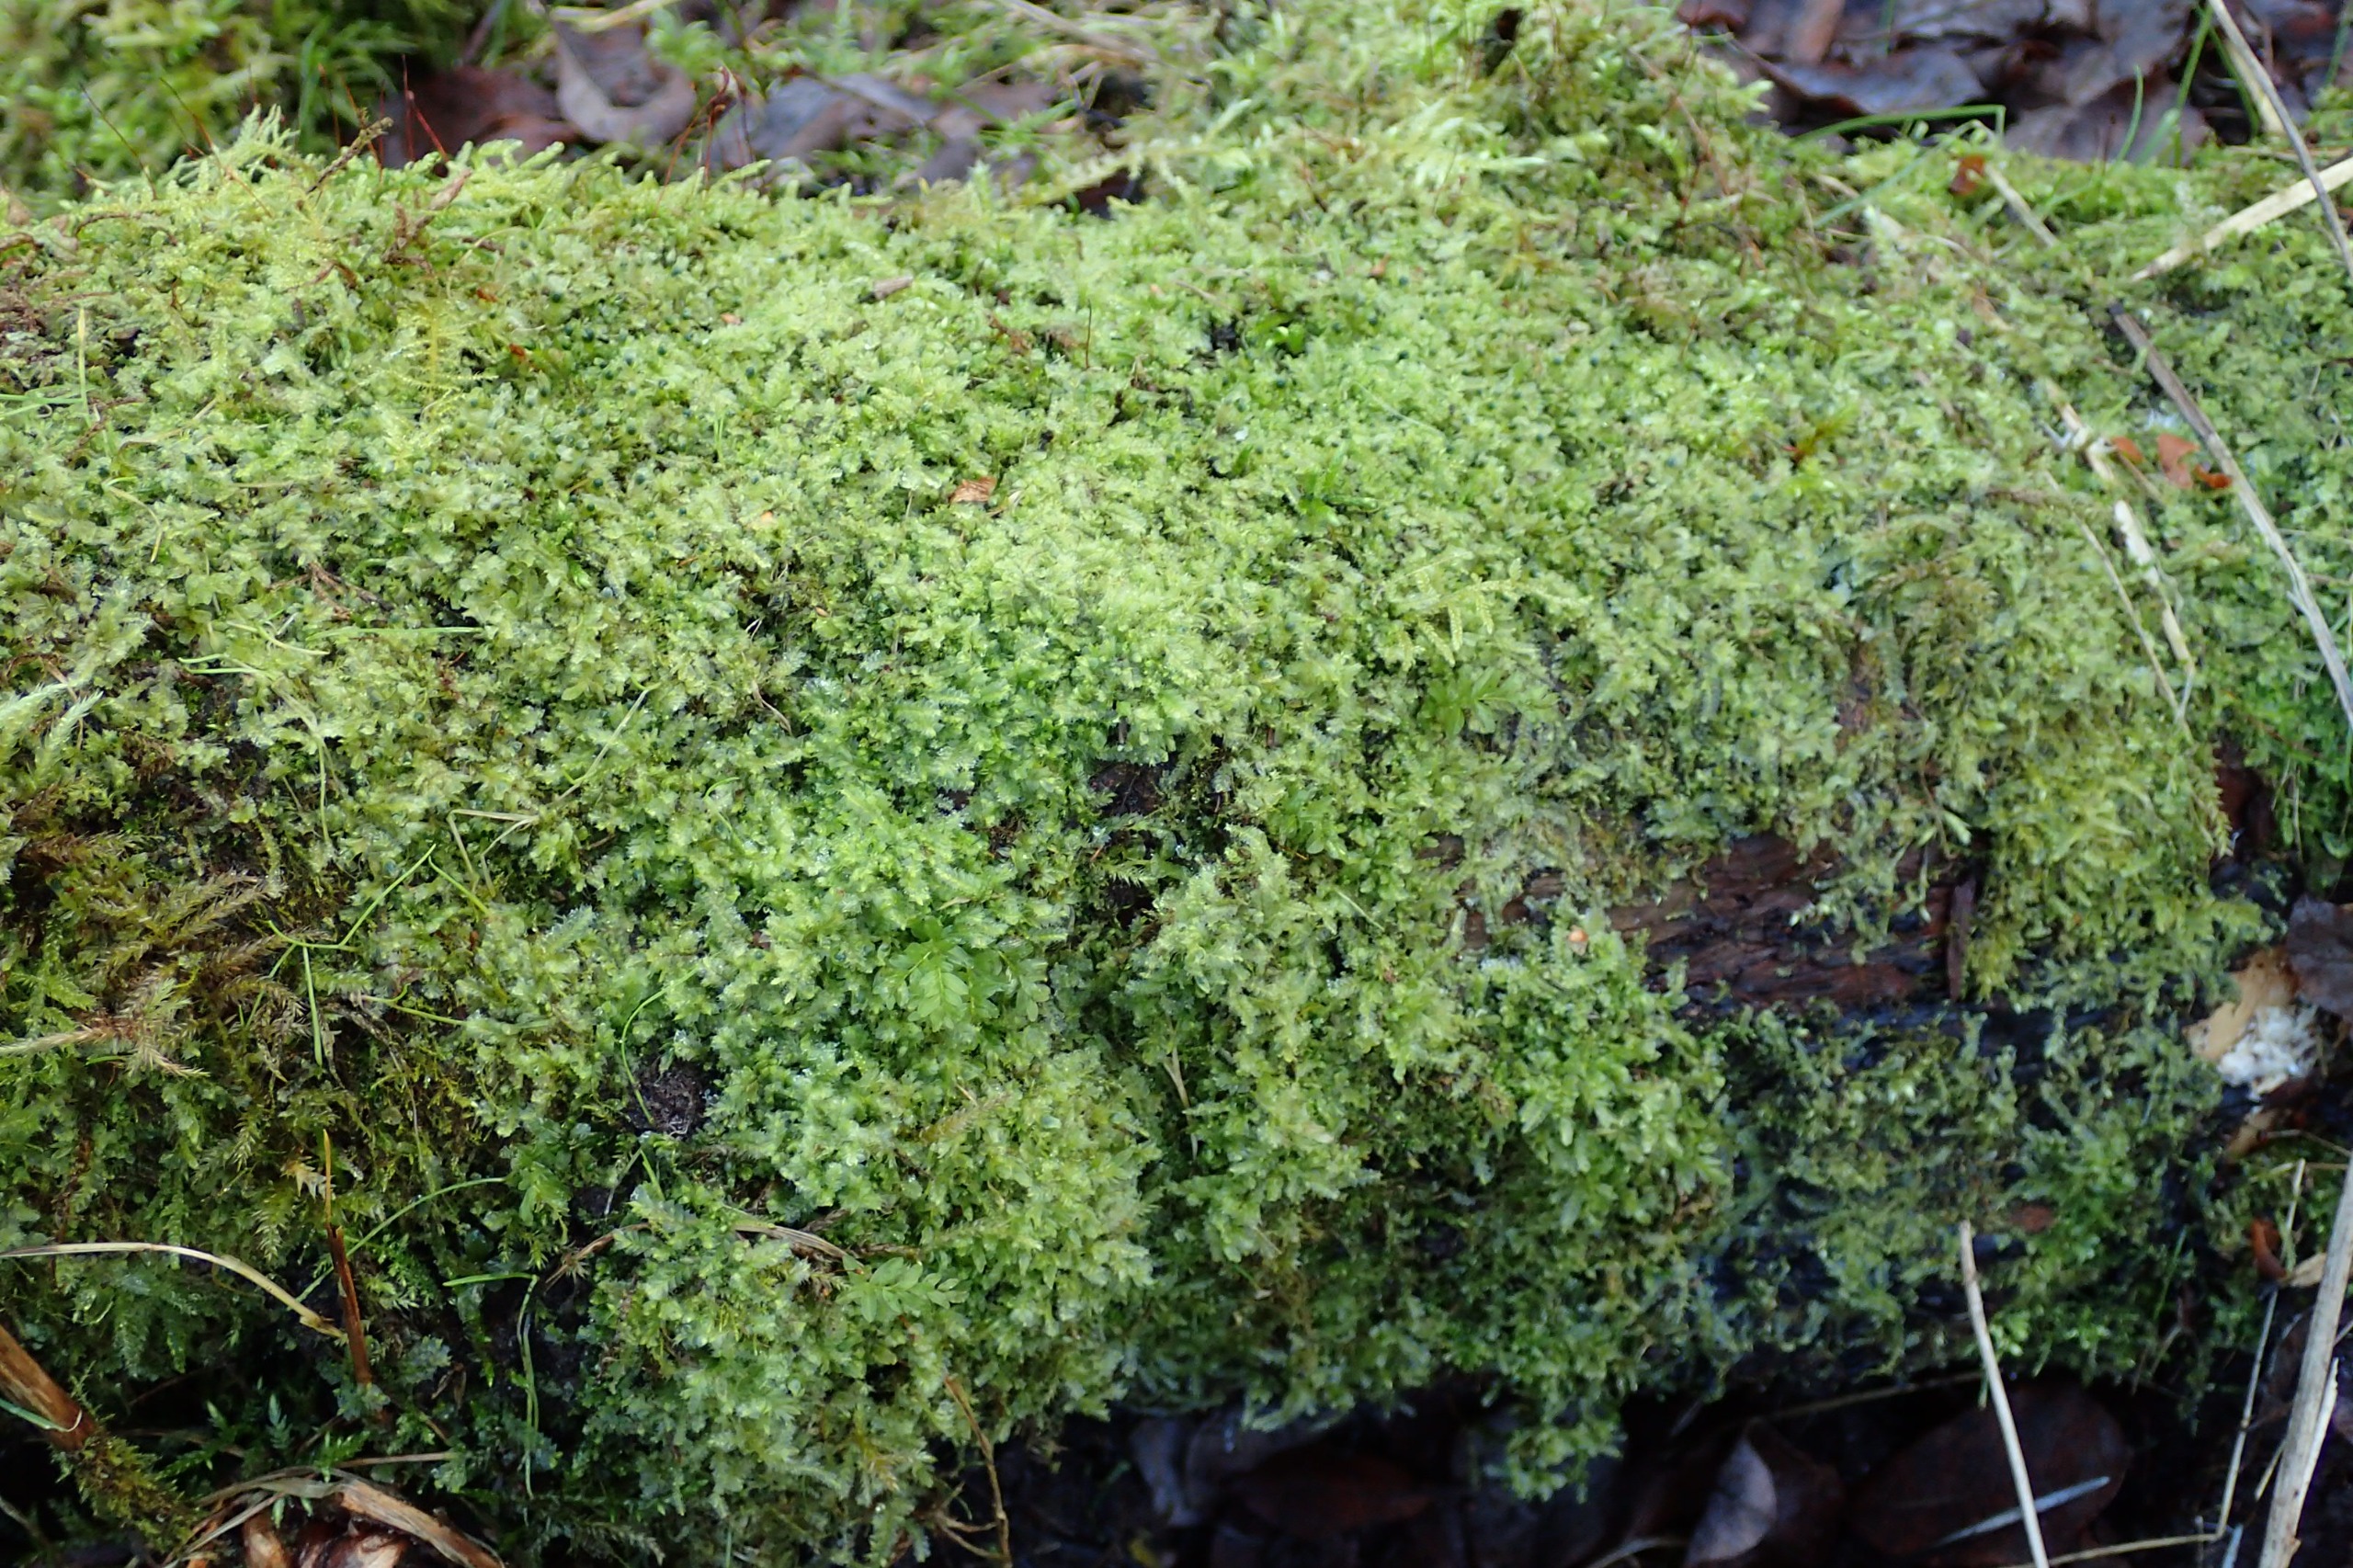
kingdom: Plantae
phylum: Marchantiophyta
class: Jungermanniopsida
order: Jungermanniales
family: Lophocoleaceae
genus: Lophocolea
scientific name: Lophocolea bidentata
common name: Sylspidset kamsvøb
